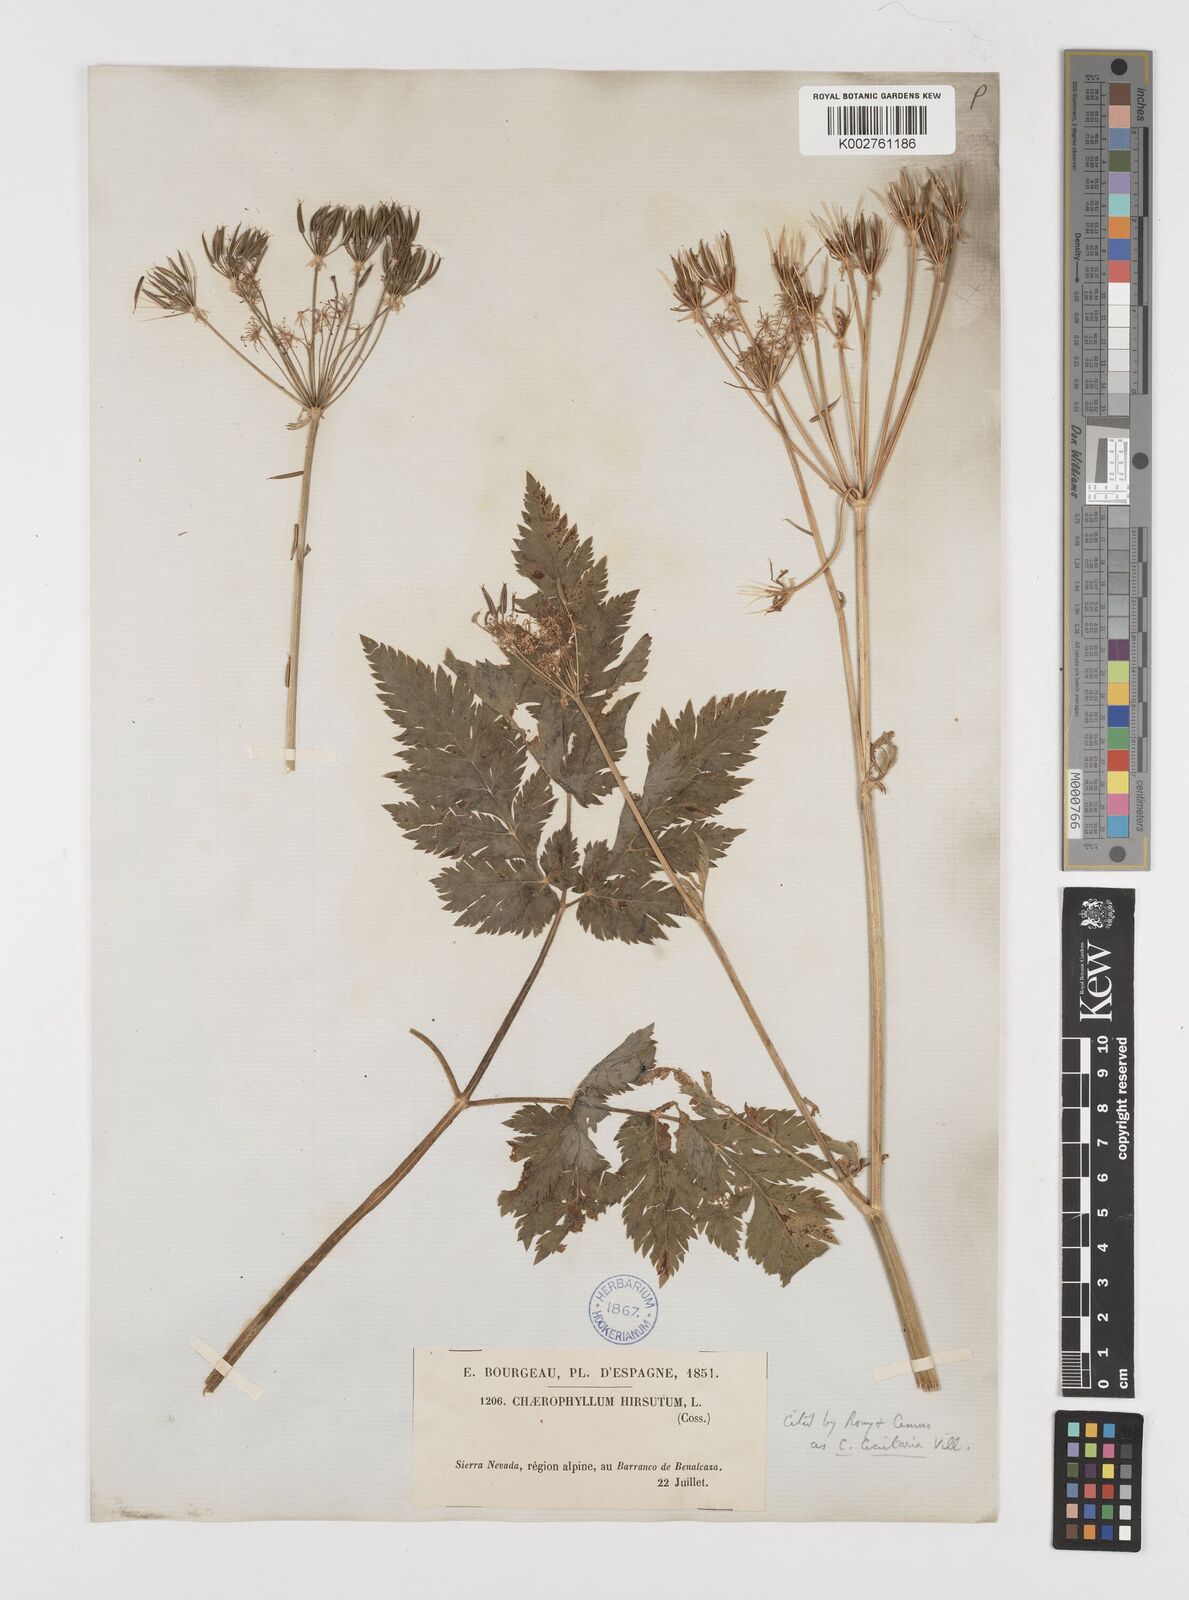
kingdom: Plantae
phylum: Tracheophyta
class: Magnoliopsida
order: Apiales
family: Apiaceae
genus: Chaerophyllum
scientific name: Chaerophyllum hirsutum
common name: Hairy chervil
